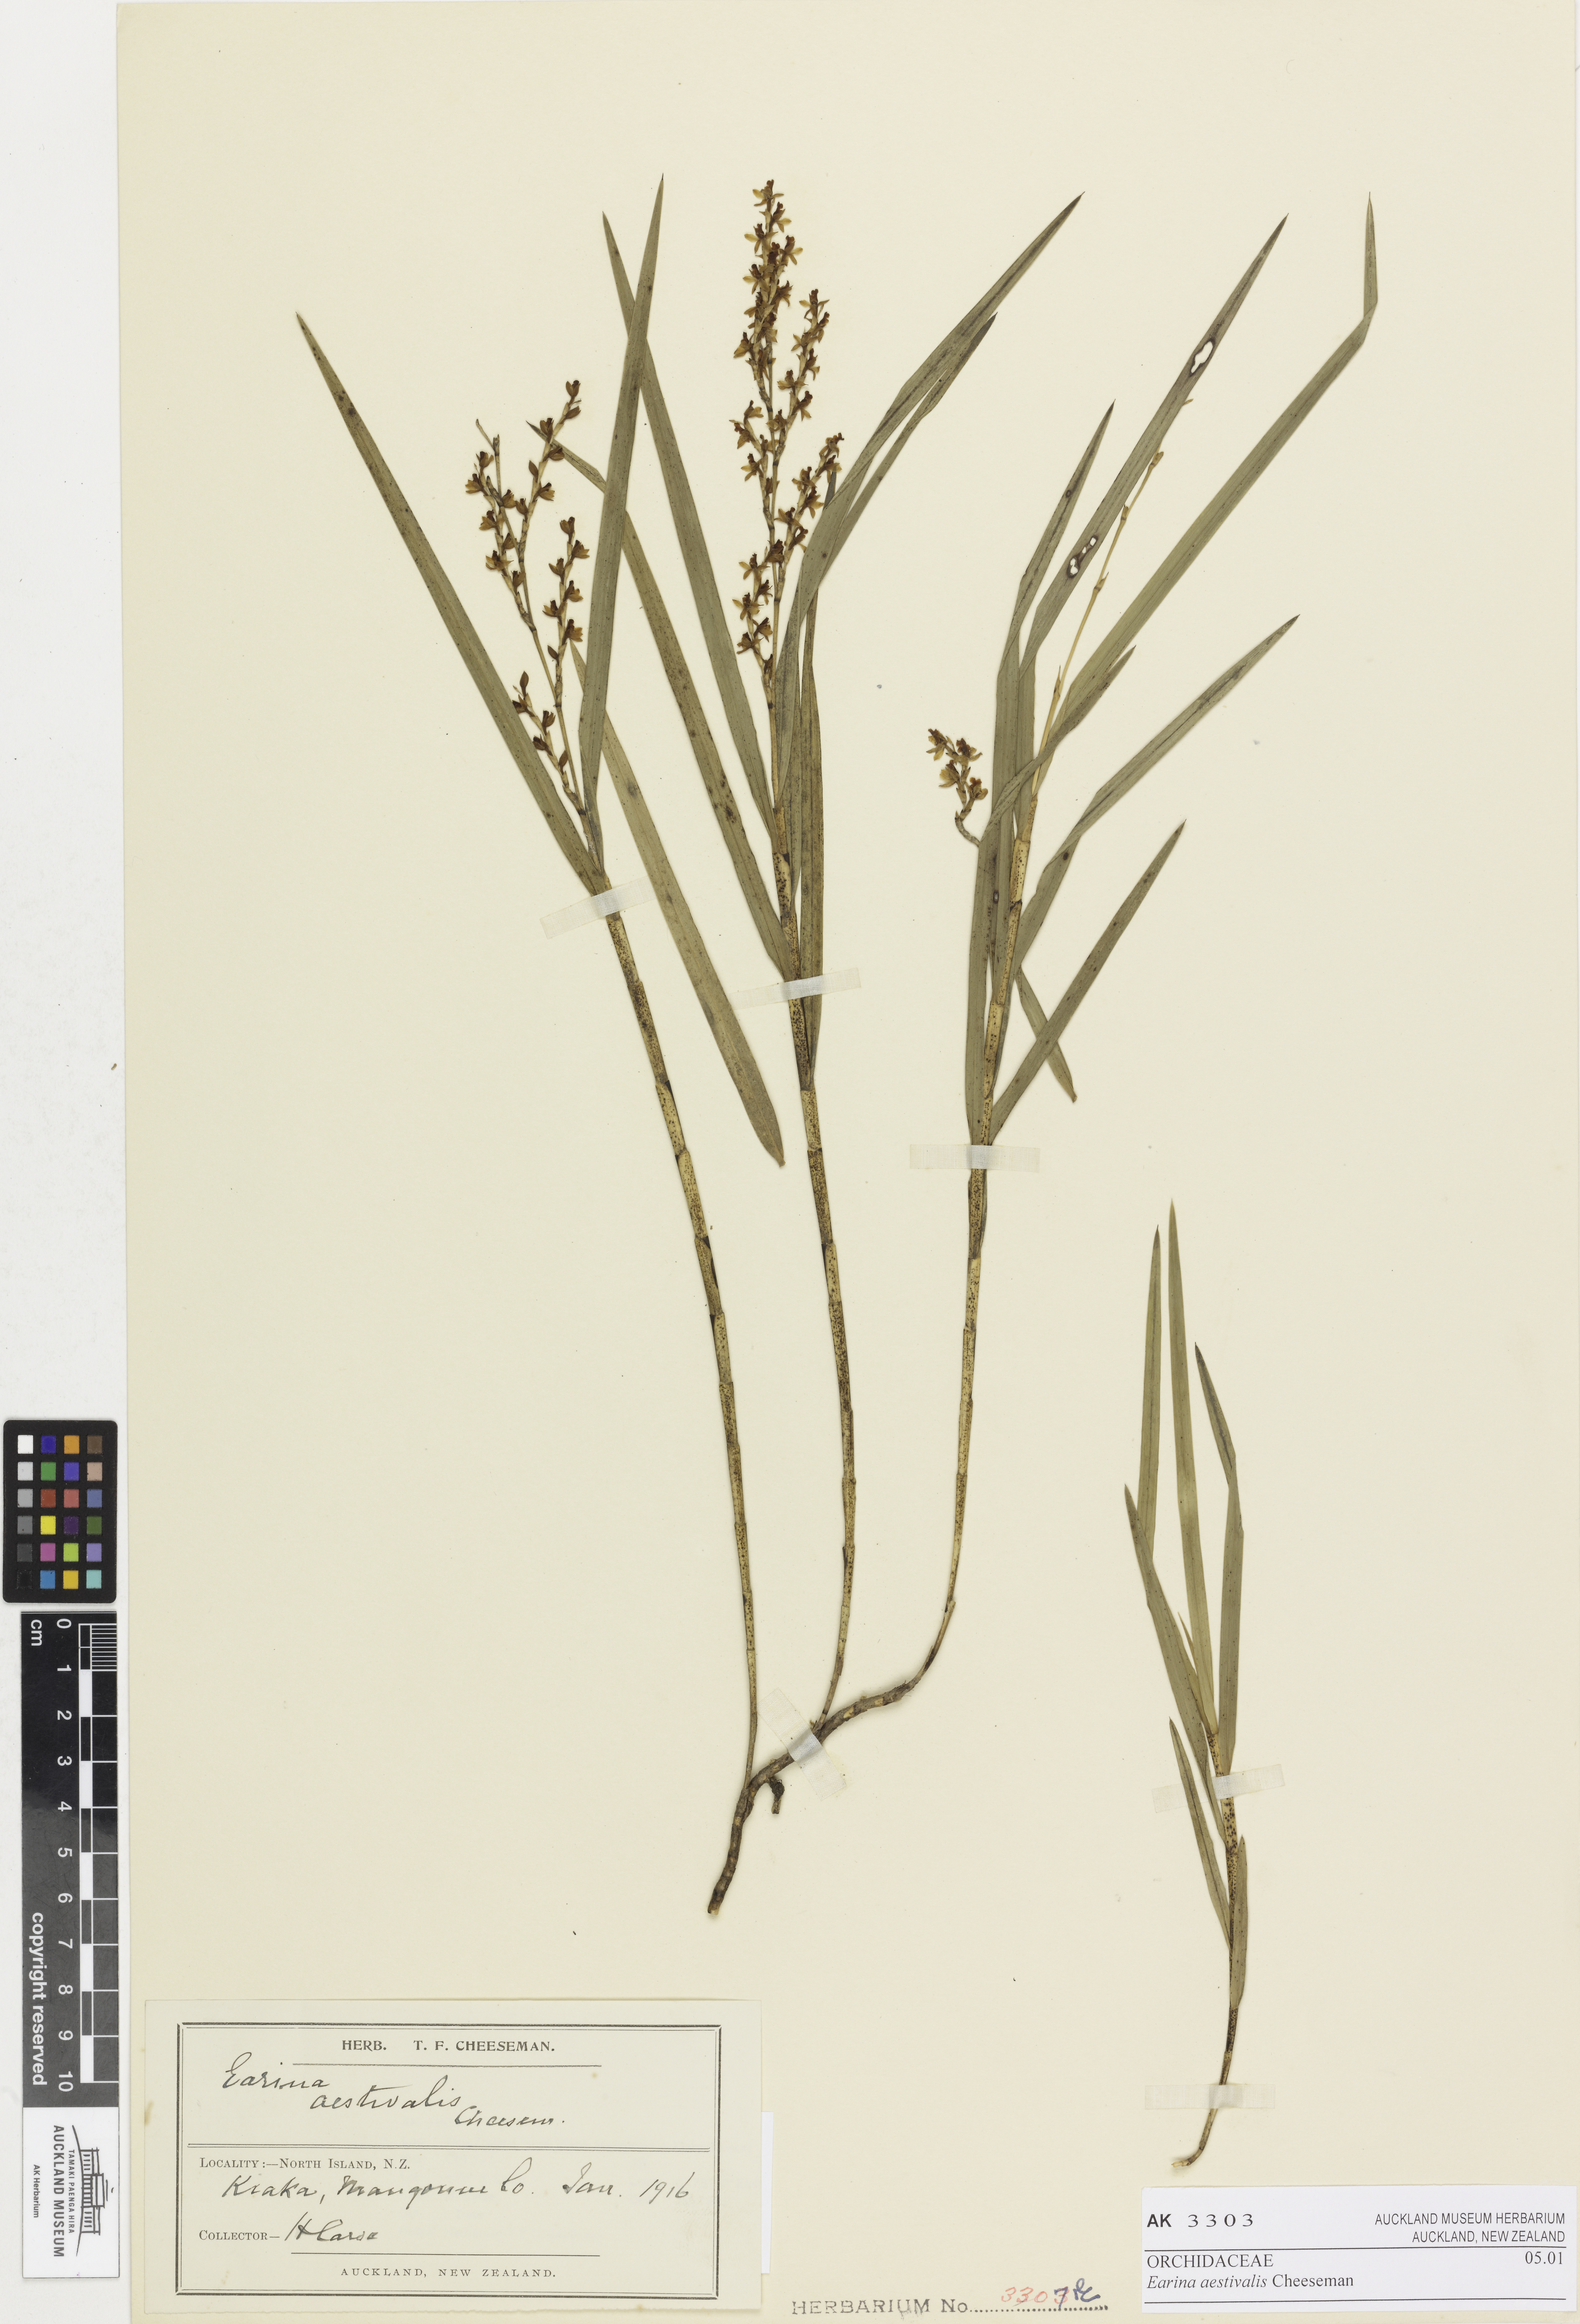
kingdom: Plantae
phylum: Tracheophyta
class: Liliopsida
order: Asparagales
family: Orchidaceae
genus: Earina
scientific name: Earina aestivalis
